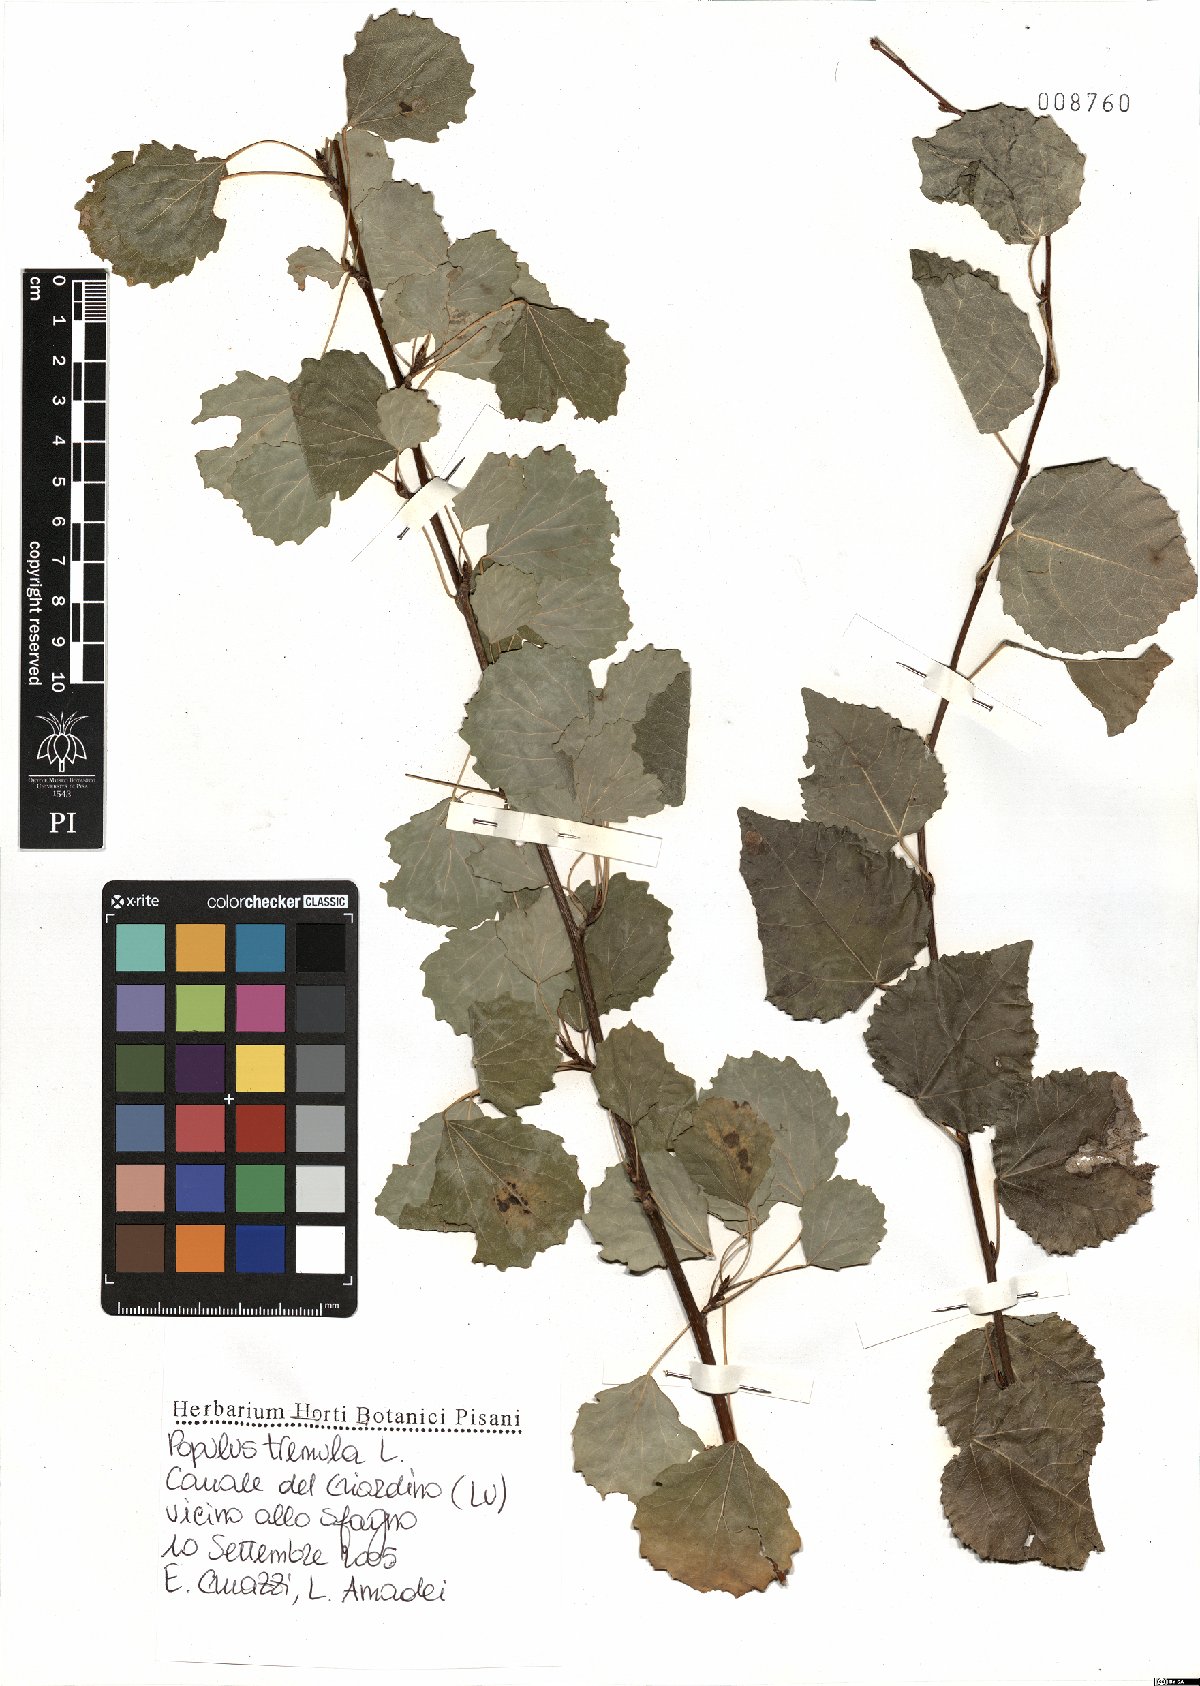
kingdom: Plantae
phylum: Tracheophyta
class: Magnoliopsida
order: Malpighiales
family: Salicaceae
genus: Populus
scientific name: Populus tremula
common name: European aspen
